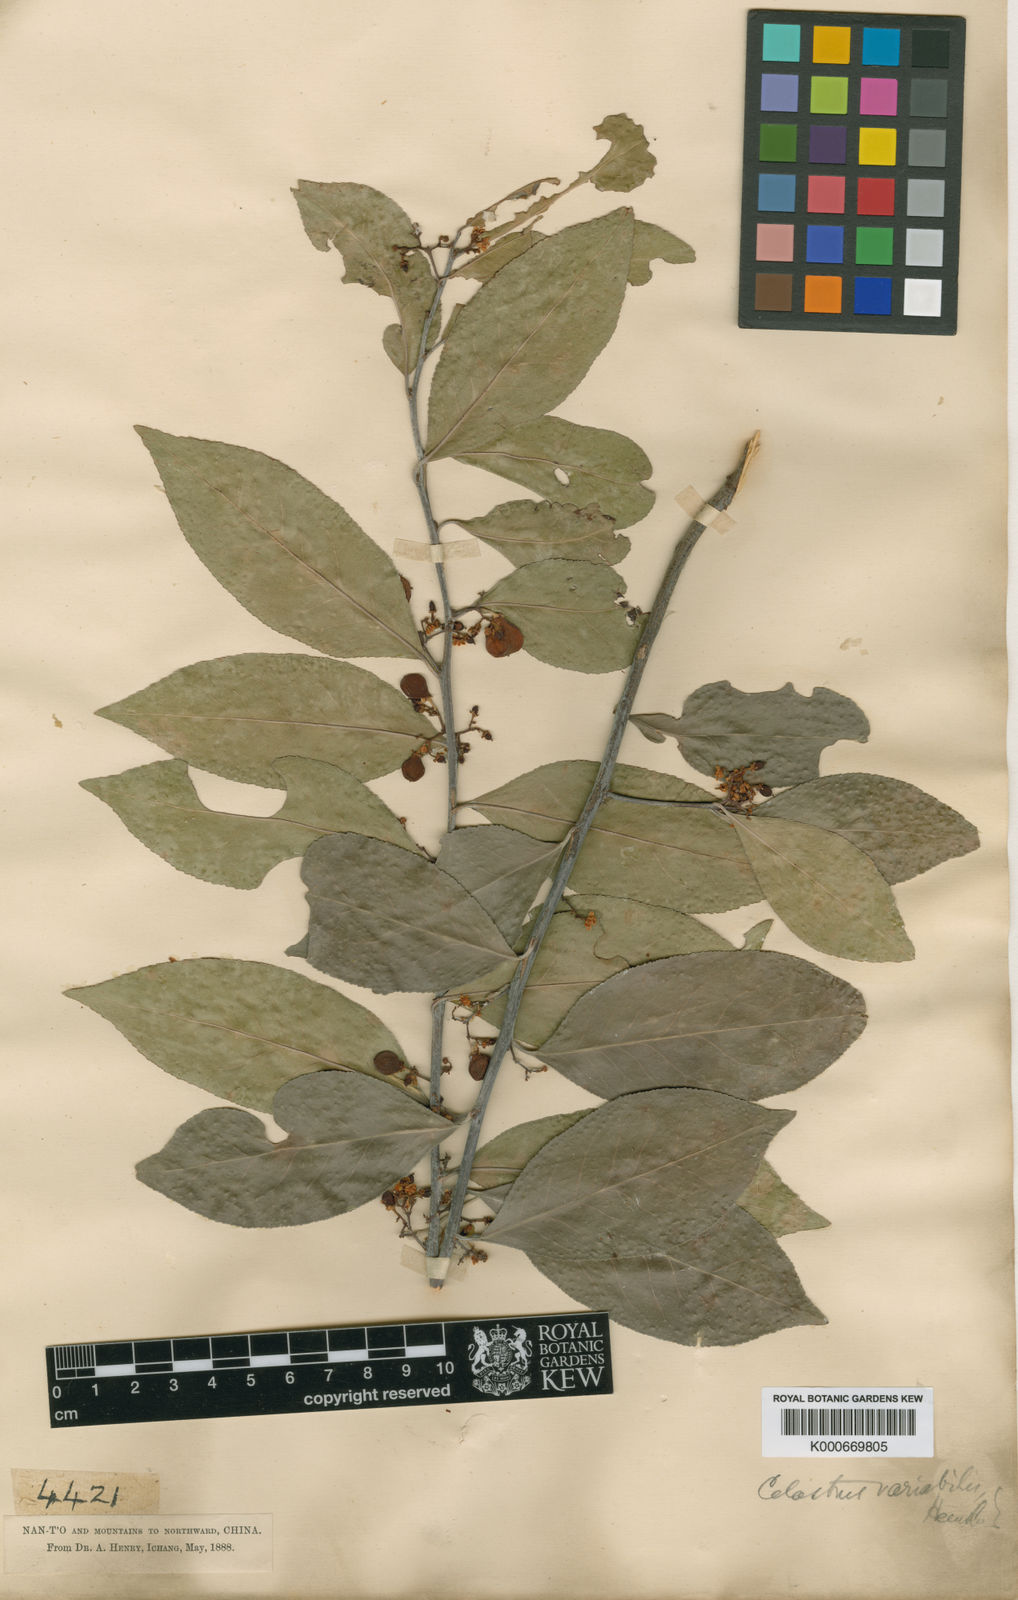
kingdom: Plantae
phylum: Tracheophyta
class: Magnoliopsida
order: Celastrales
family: Celastraceae
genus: Gymnosporia
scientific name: Gymnosporia variabilis
